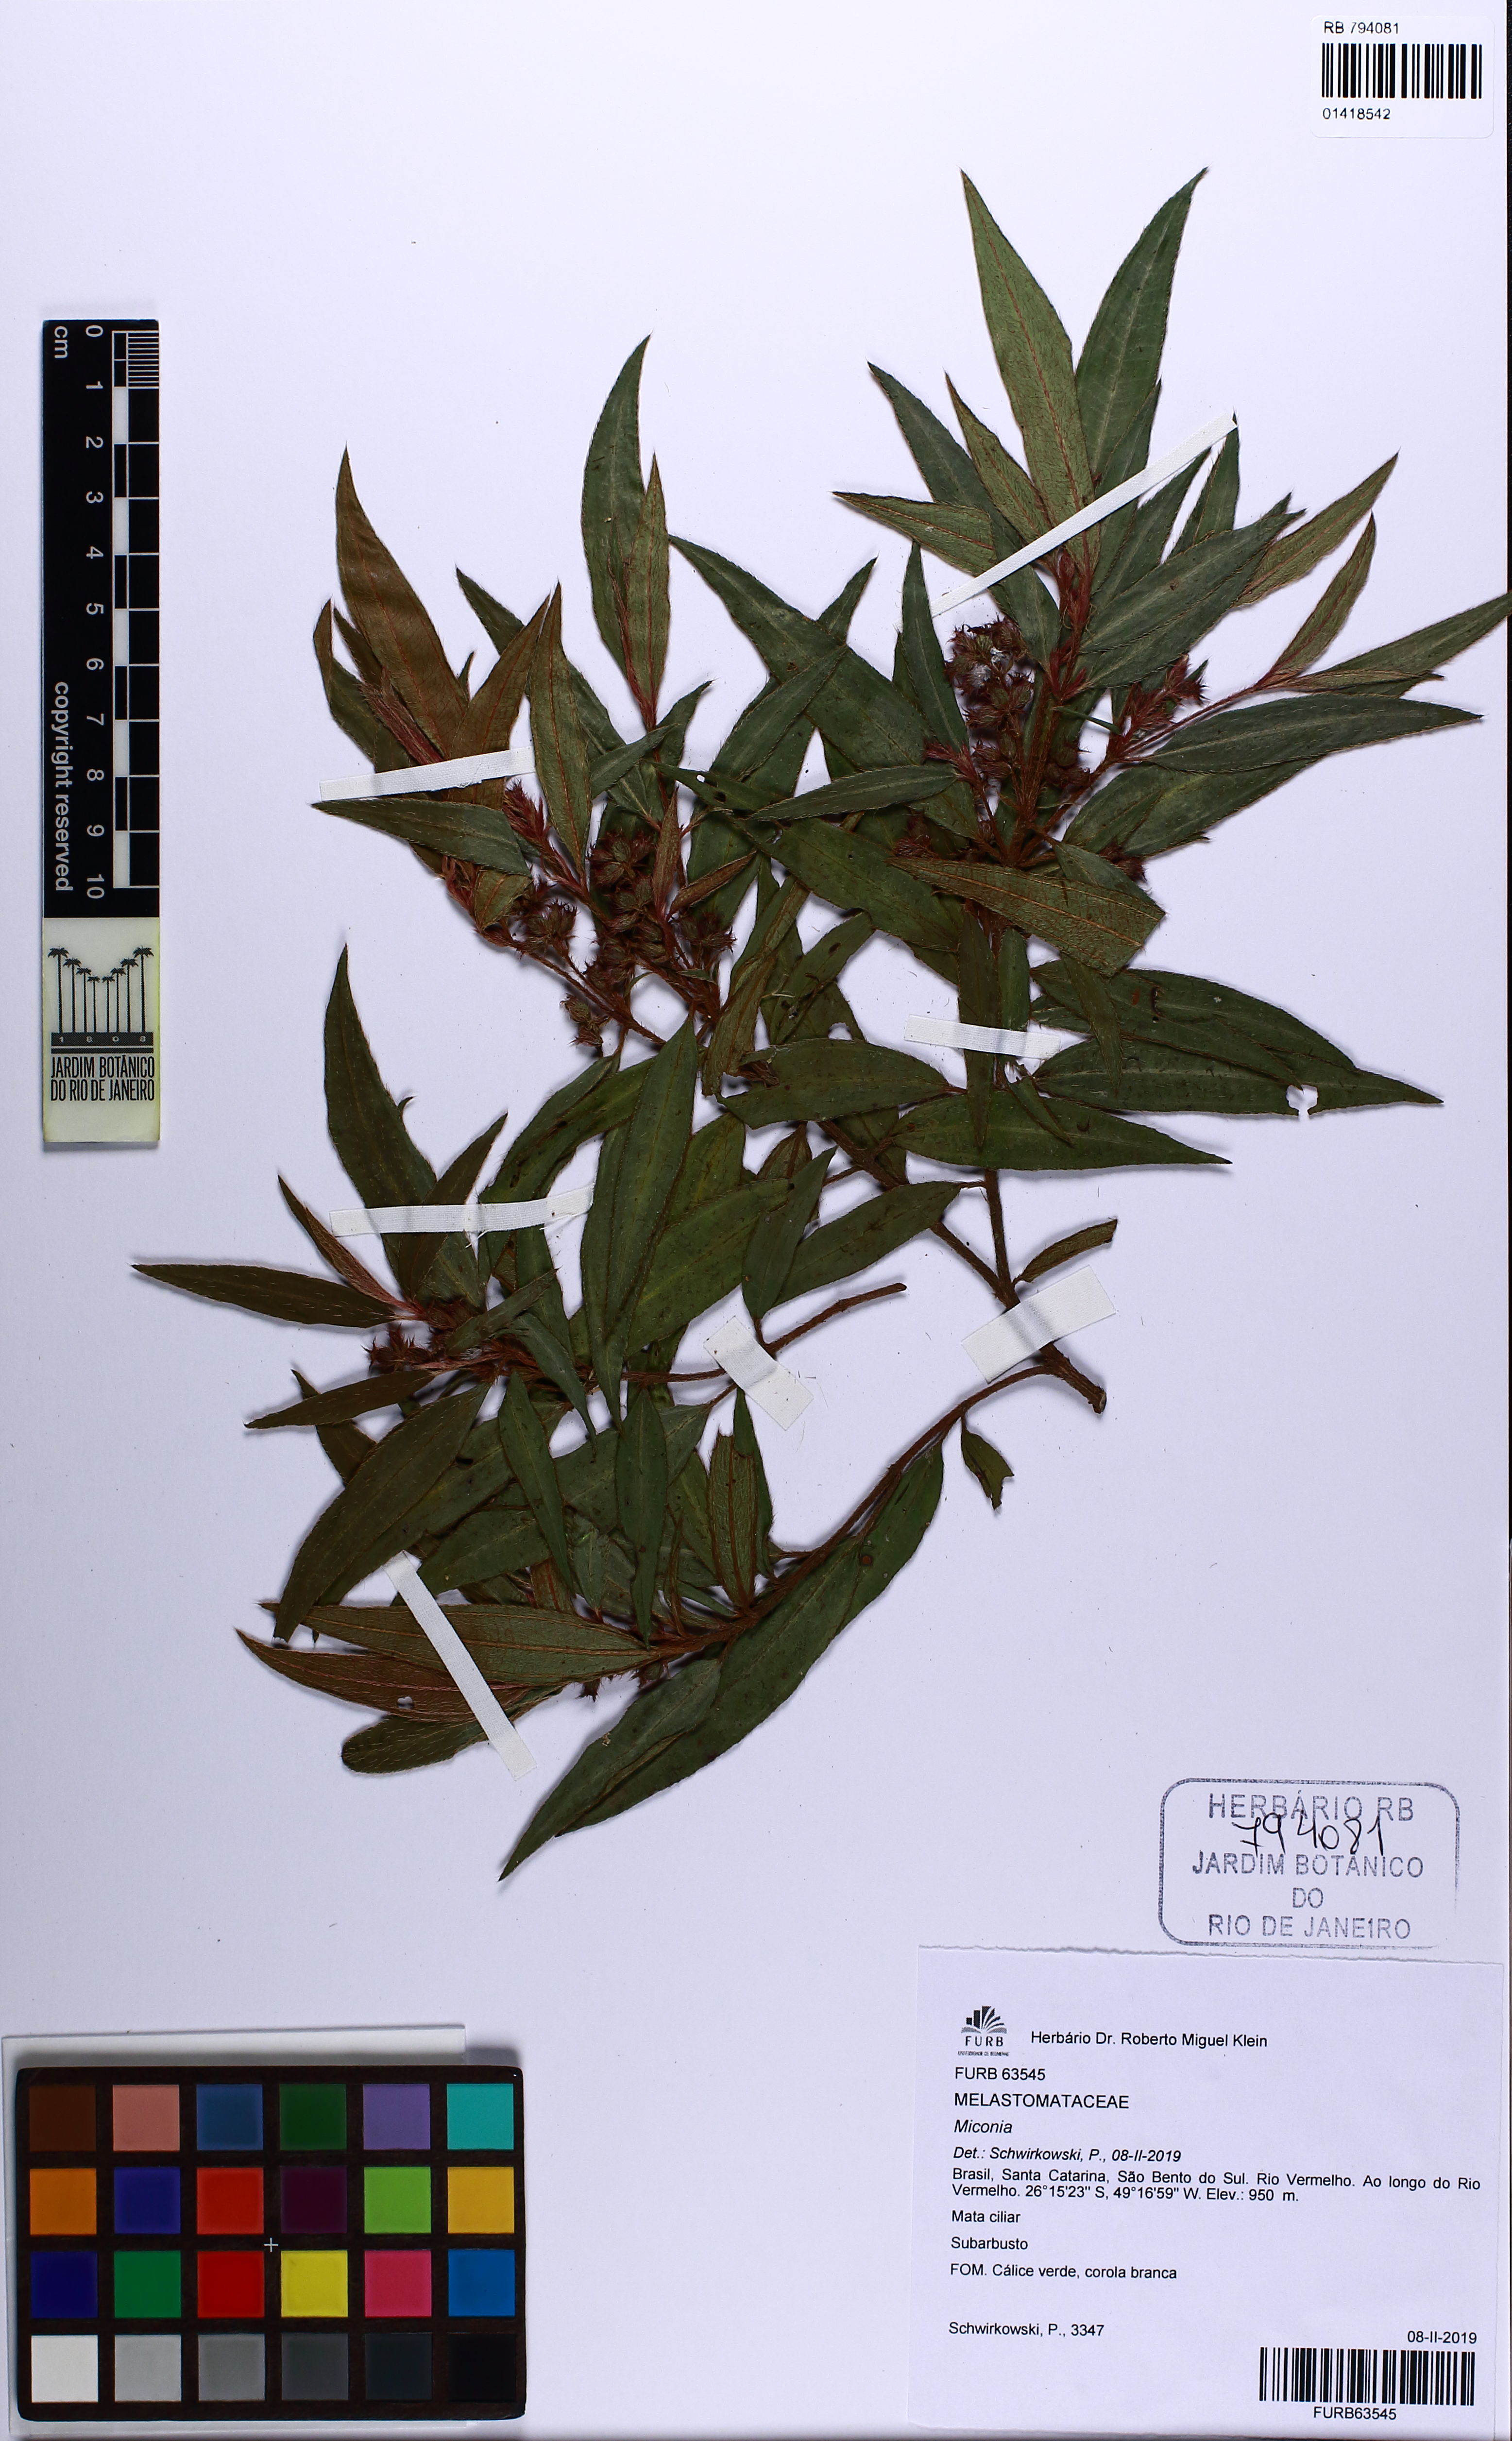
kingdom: Plantae
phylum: Tracheophyta
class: Magnoliopsida
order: Myrtales
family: Melastomataceae
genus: Miconia
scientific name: Miconia
